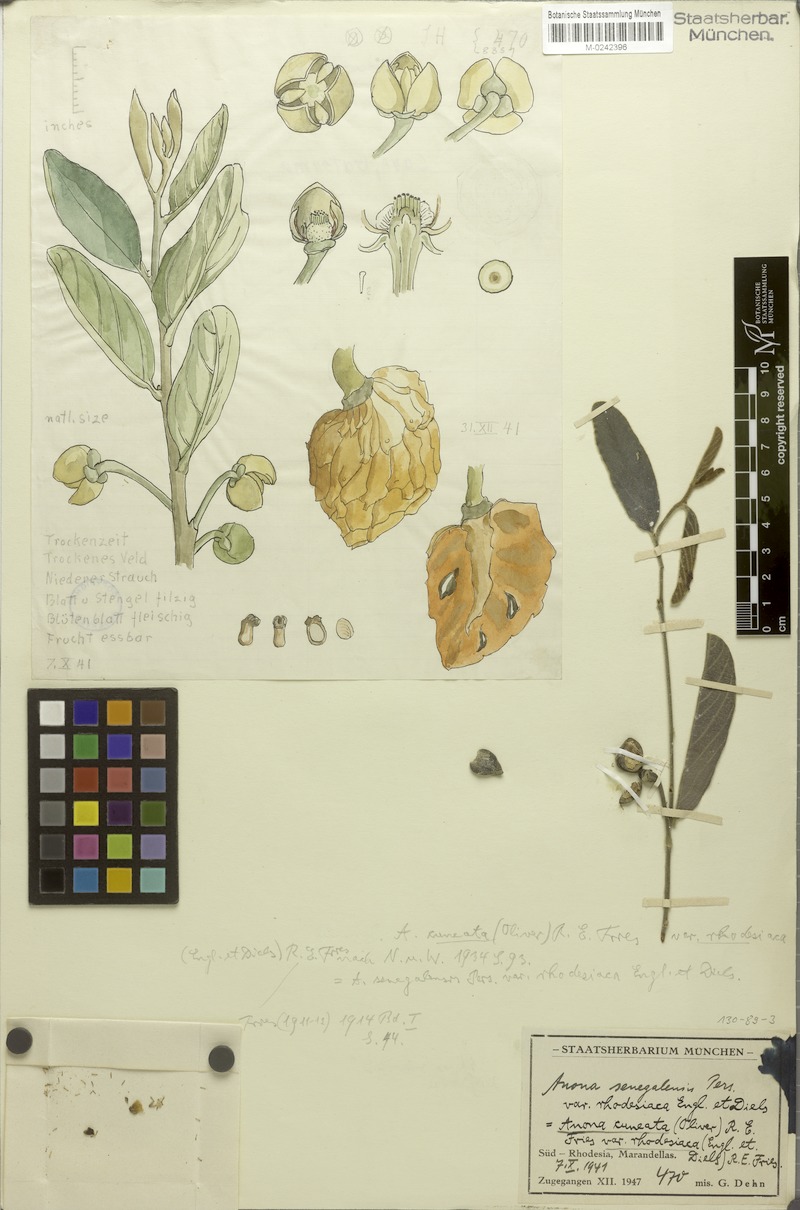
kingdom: Plantae
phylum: Tracheophyta
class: Magnoliopsida
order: Magnoliales
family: Annonaceae
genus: Annona
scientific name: Annona stenophylla
